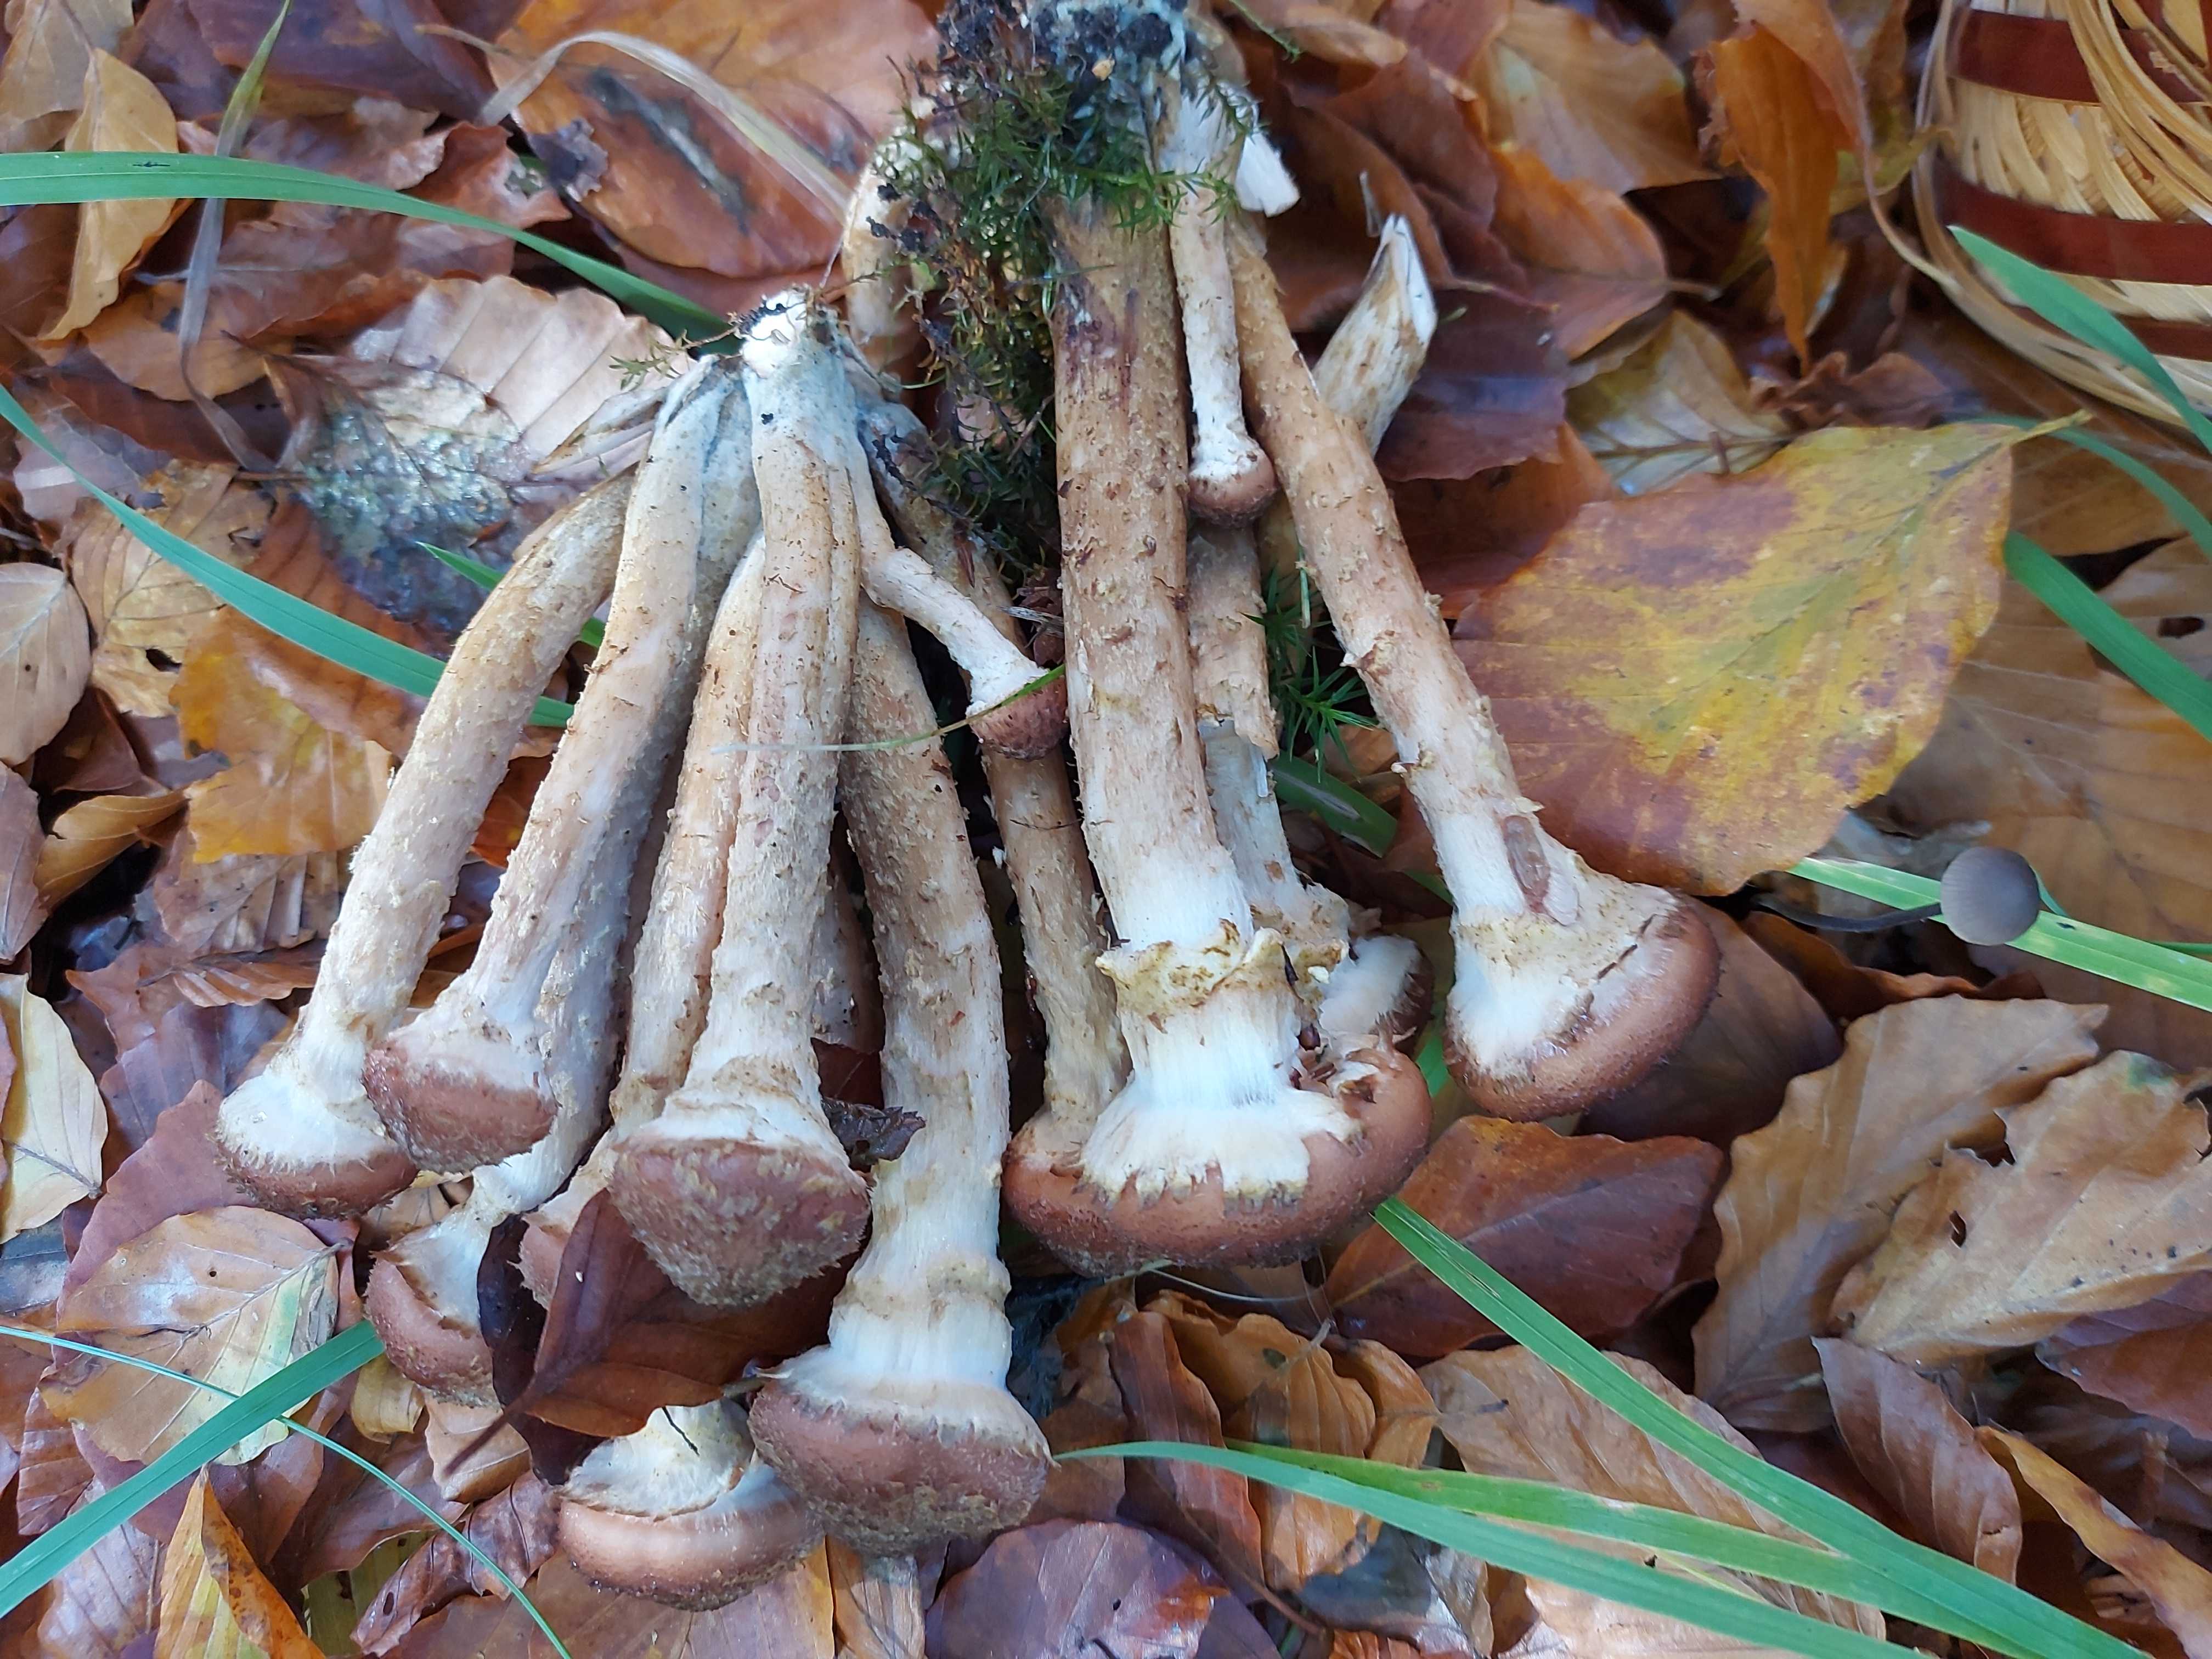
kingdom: Fungi
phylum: Basidiomycota
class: Agaricomycetes
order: Agaricales
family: Physalacriaceae
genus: Armillaria
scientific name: Armillaria ostoyae
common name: mørk honningsvamp
